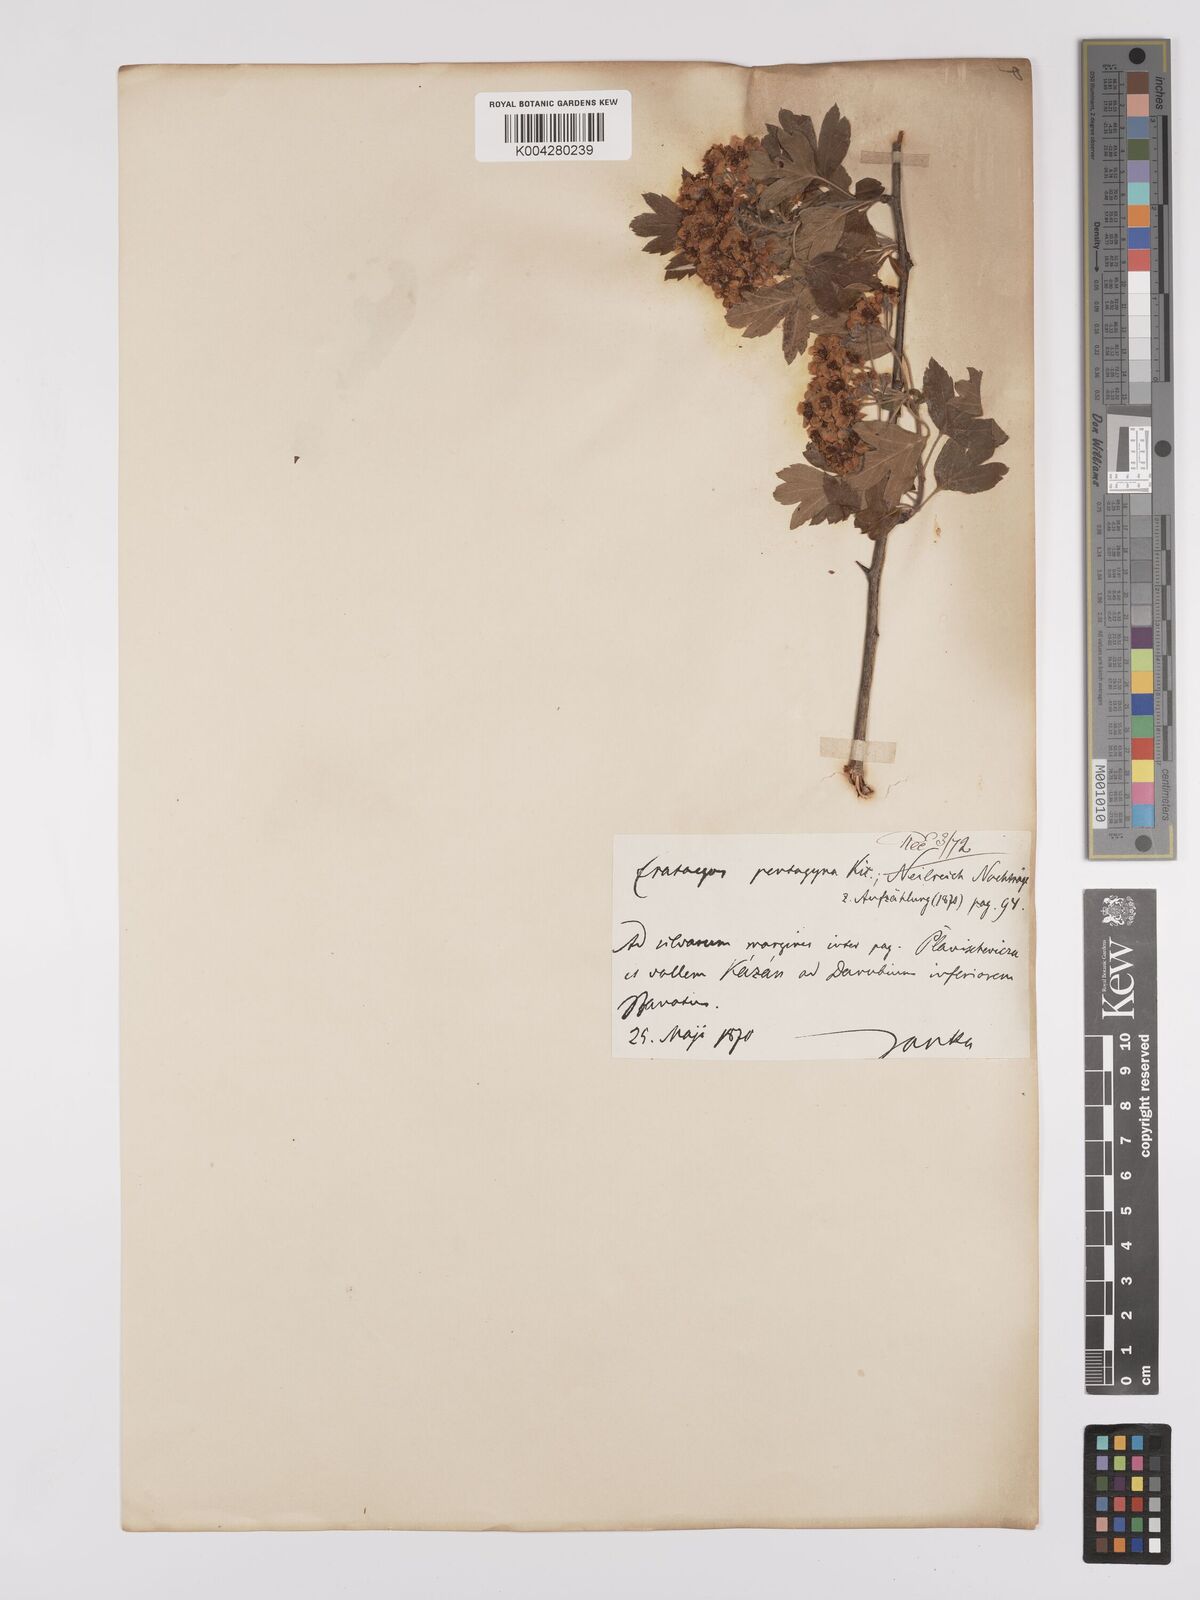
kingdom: Plantae
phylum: Tracheophyta
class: Magnoliopsida
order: Rosales
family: Rosaceae
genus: Crataegus
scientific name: Crataegus pentagyna
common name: Small-flowered black hawthorn
